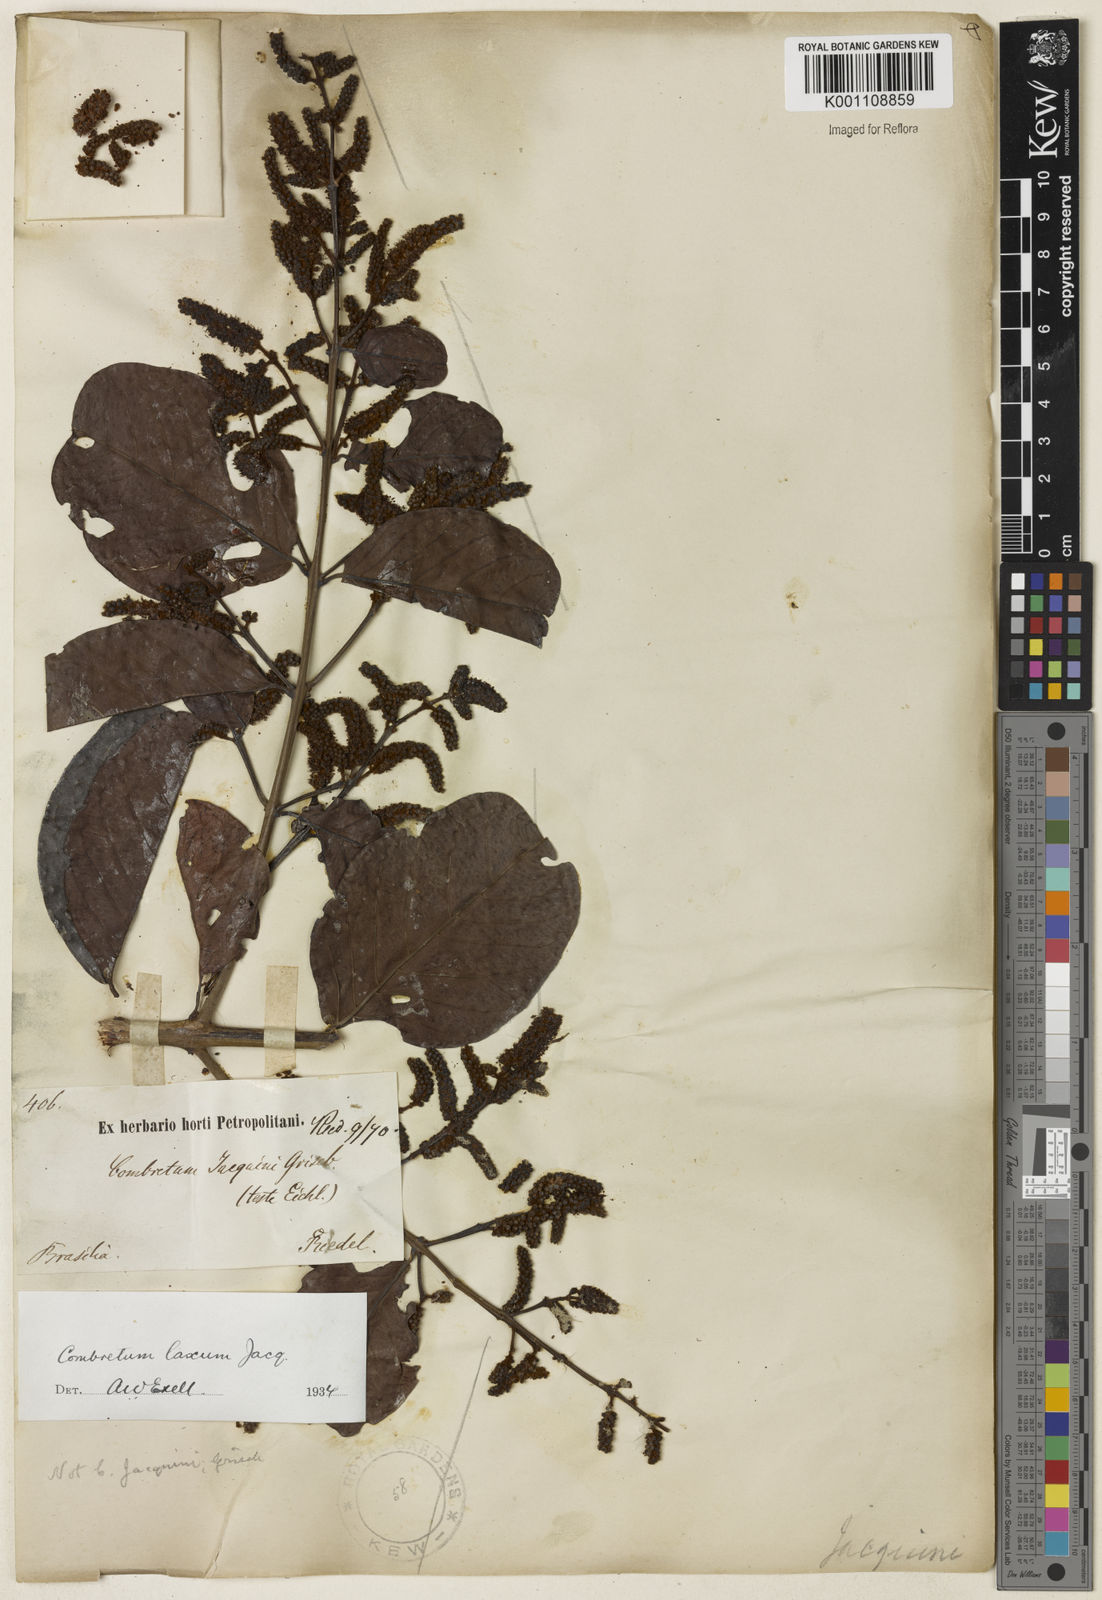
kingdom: Plantae
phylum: Tracheophyta
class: Magnoliopsida
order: Myrtales
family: Combretaceae
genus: Combretum
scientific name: Combretum laxum
